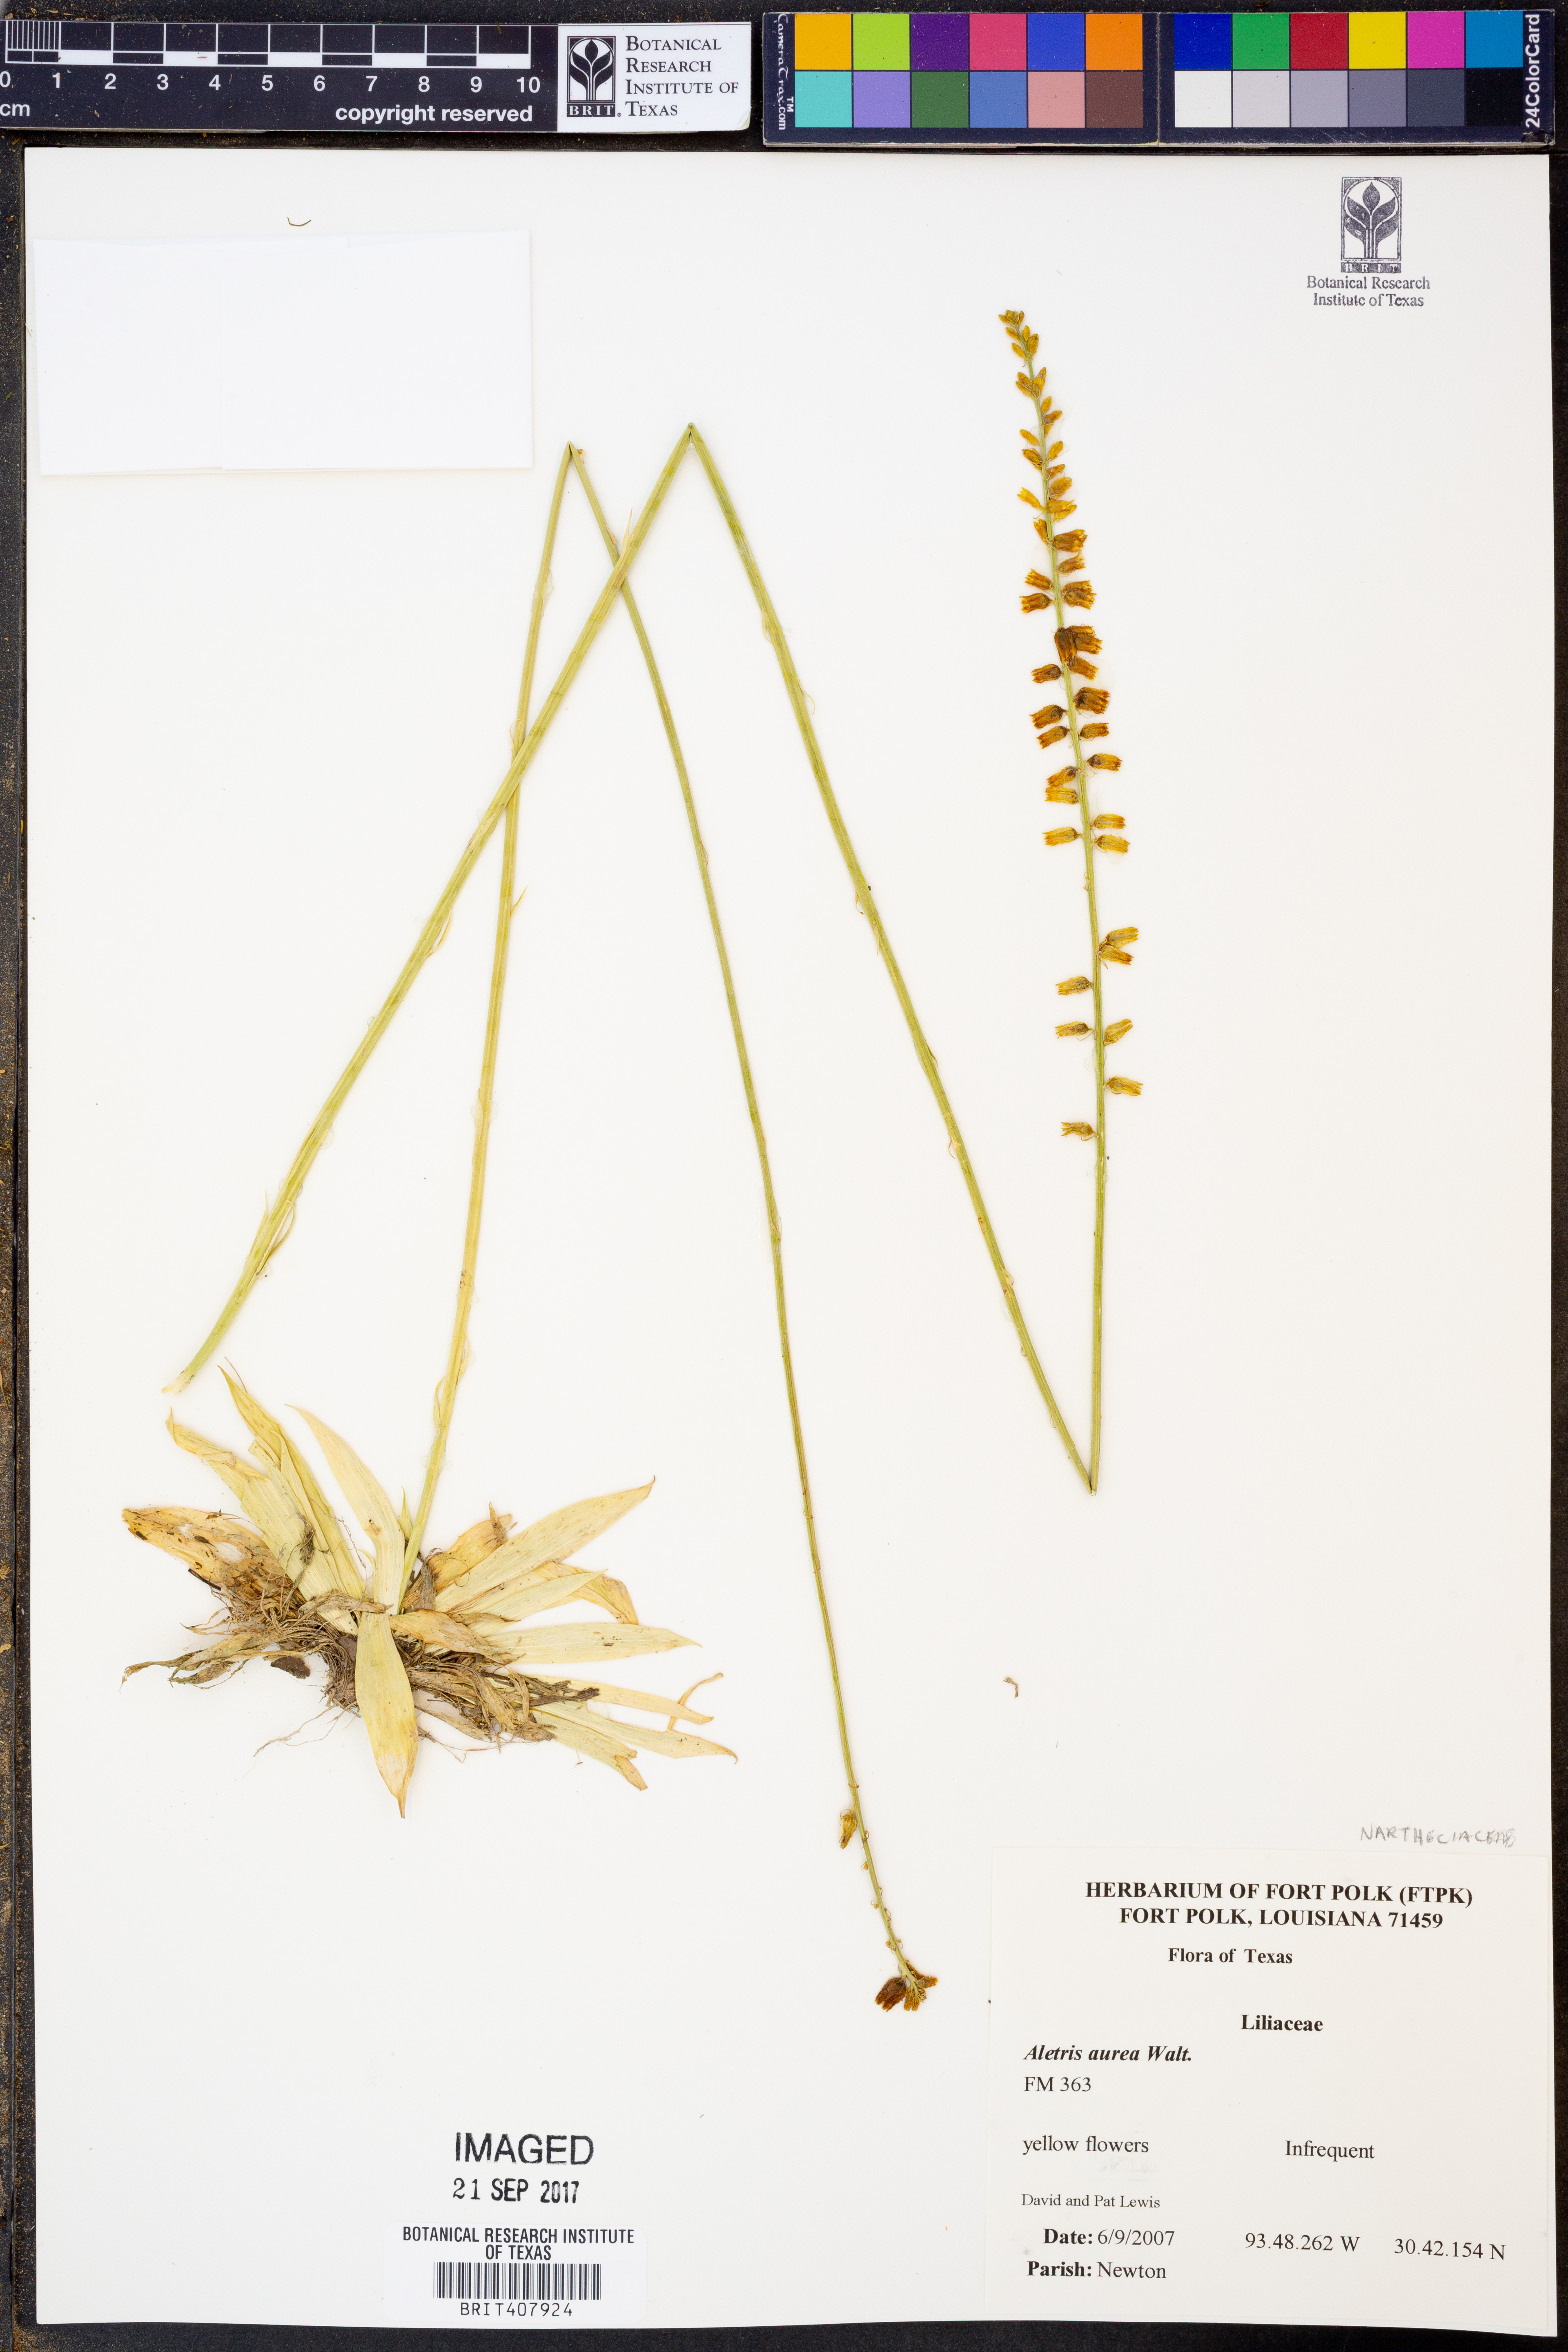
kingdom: Plantae
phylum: Tracheophyta
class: Liliopsida
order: Dioscoreales
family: Nartheciaceae
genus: Aletris
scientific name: Aletris aurea
